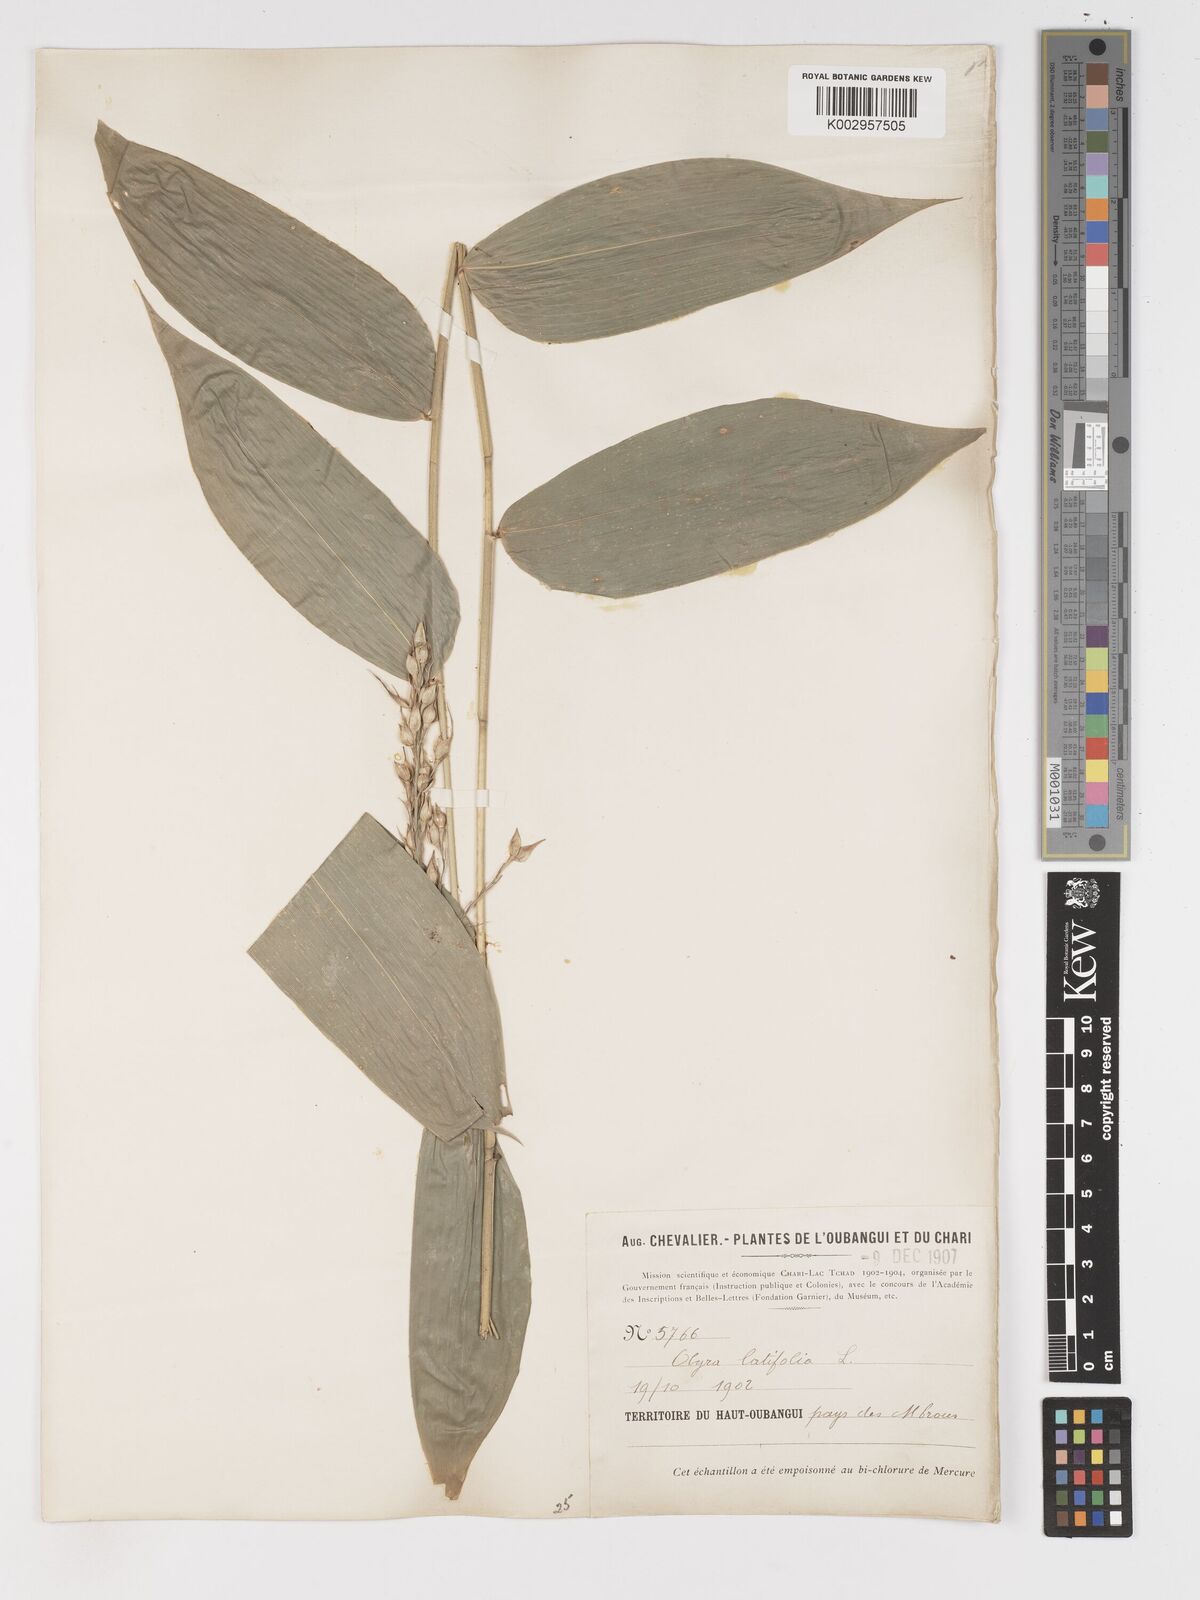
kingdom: Plantae
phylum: Tracheophyta
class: Liliopsida
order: Poales
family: Poaceae
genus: Olyra
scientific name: Olyra latifolia
